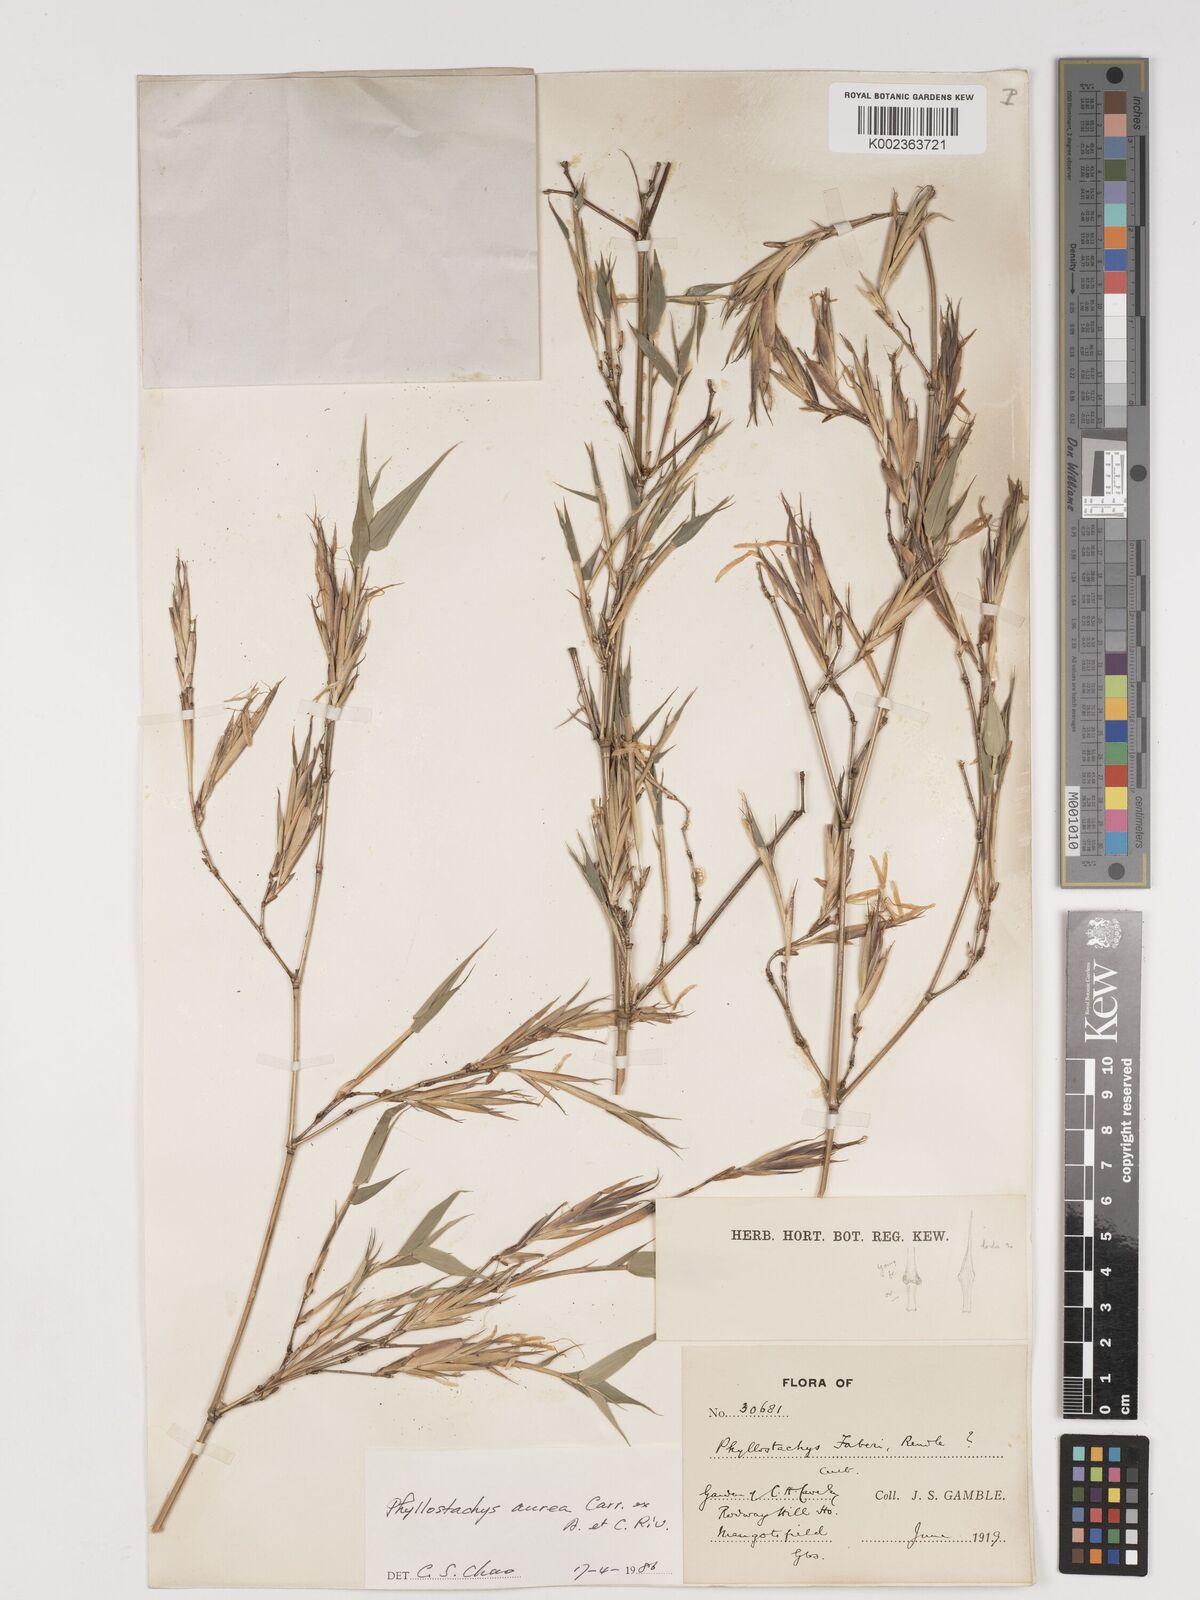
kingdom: Plantae
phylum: Tracheophyta
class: Liliopsida
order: Poales
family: Poaceae
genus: Phyllostachys
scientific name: Phyllostachys aurea
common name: Golden bamboo
